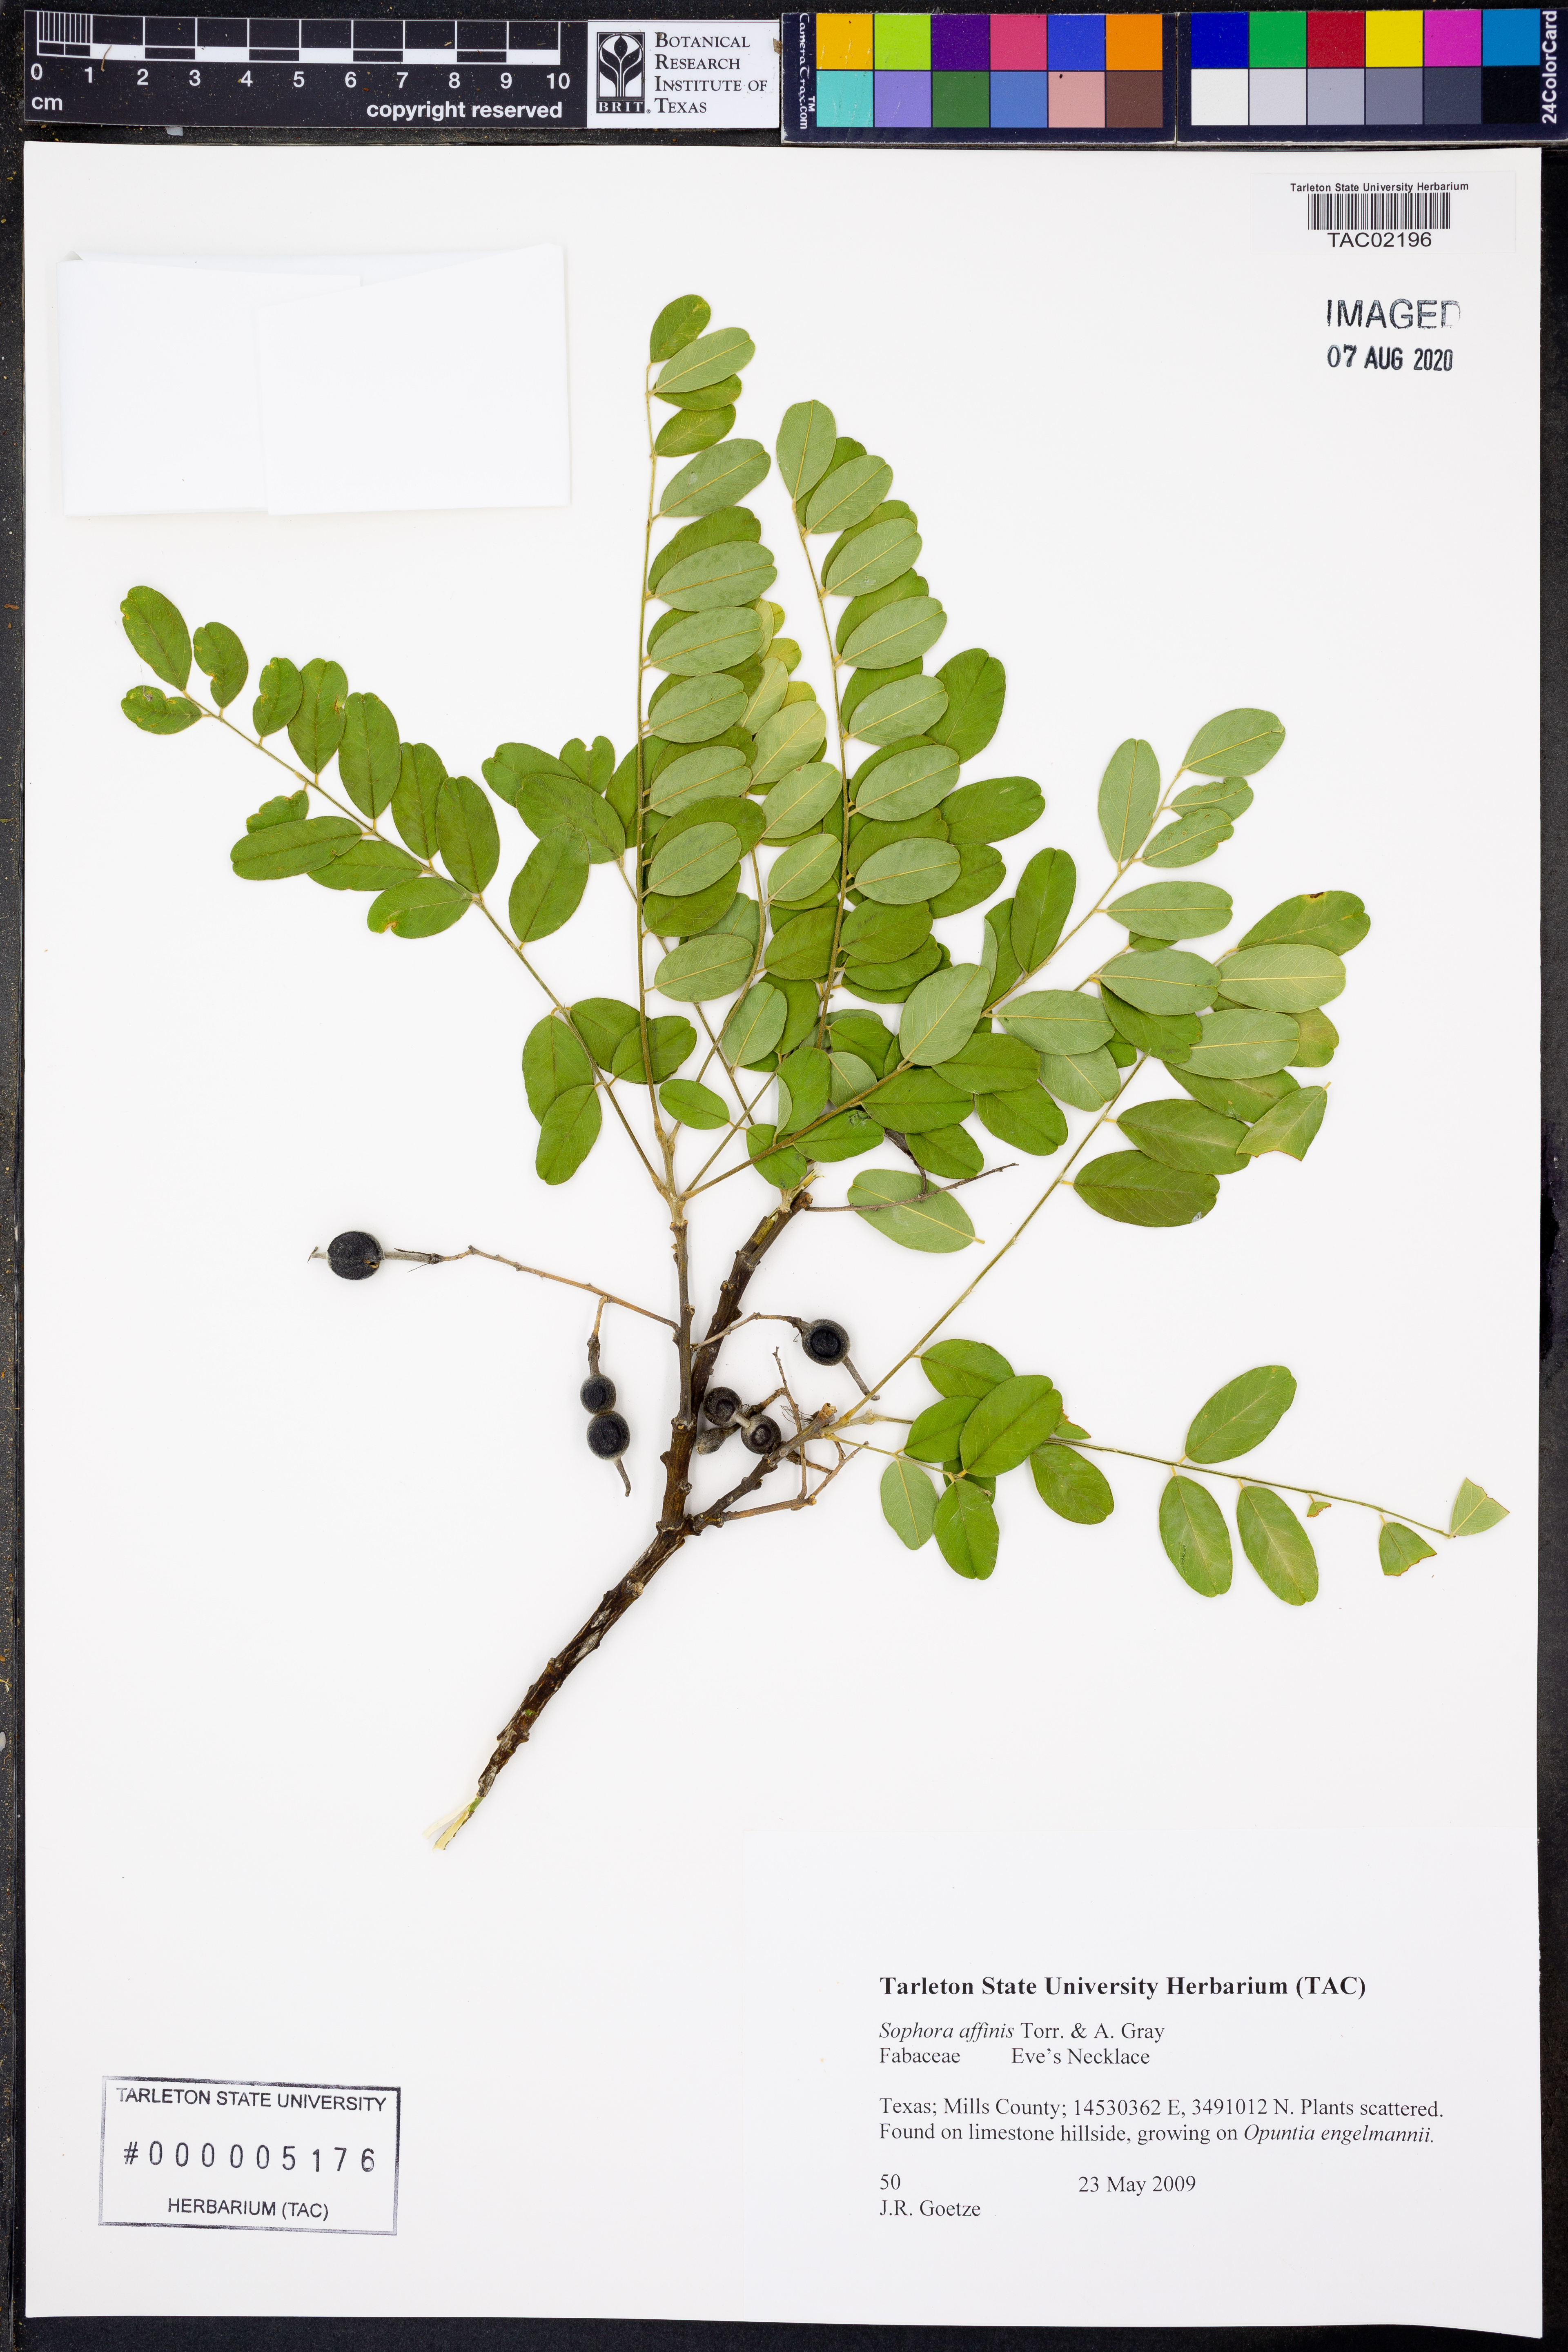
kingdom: Plantae
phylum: Tracheophyta
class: Magnoliopsida
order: Fabales
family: Fabaceae
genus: Styphnolobium
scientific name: Styphnolobium affine
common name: Texas sophora
